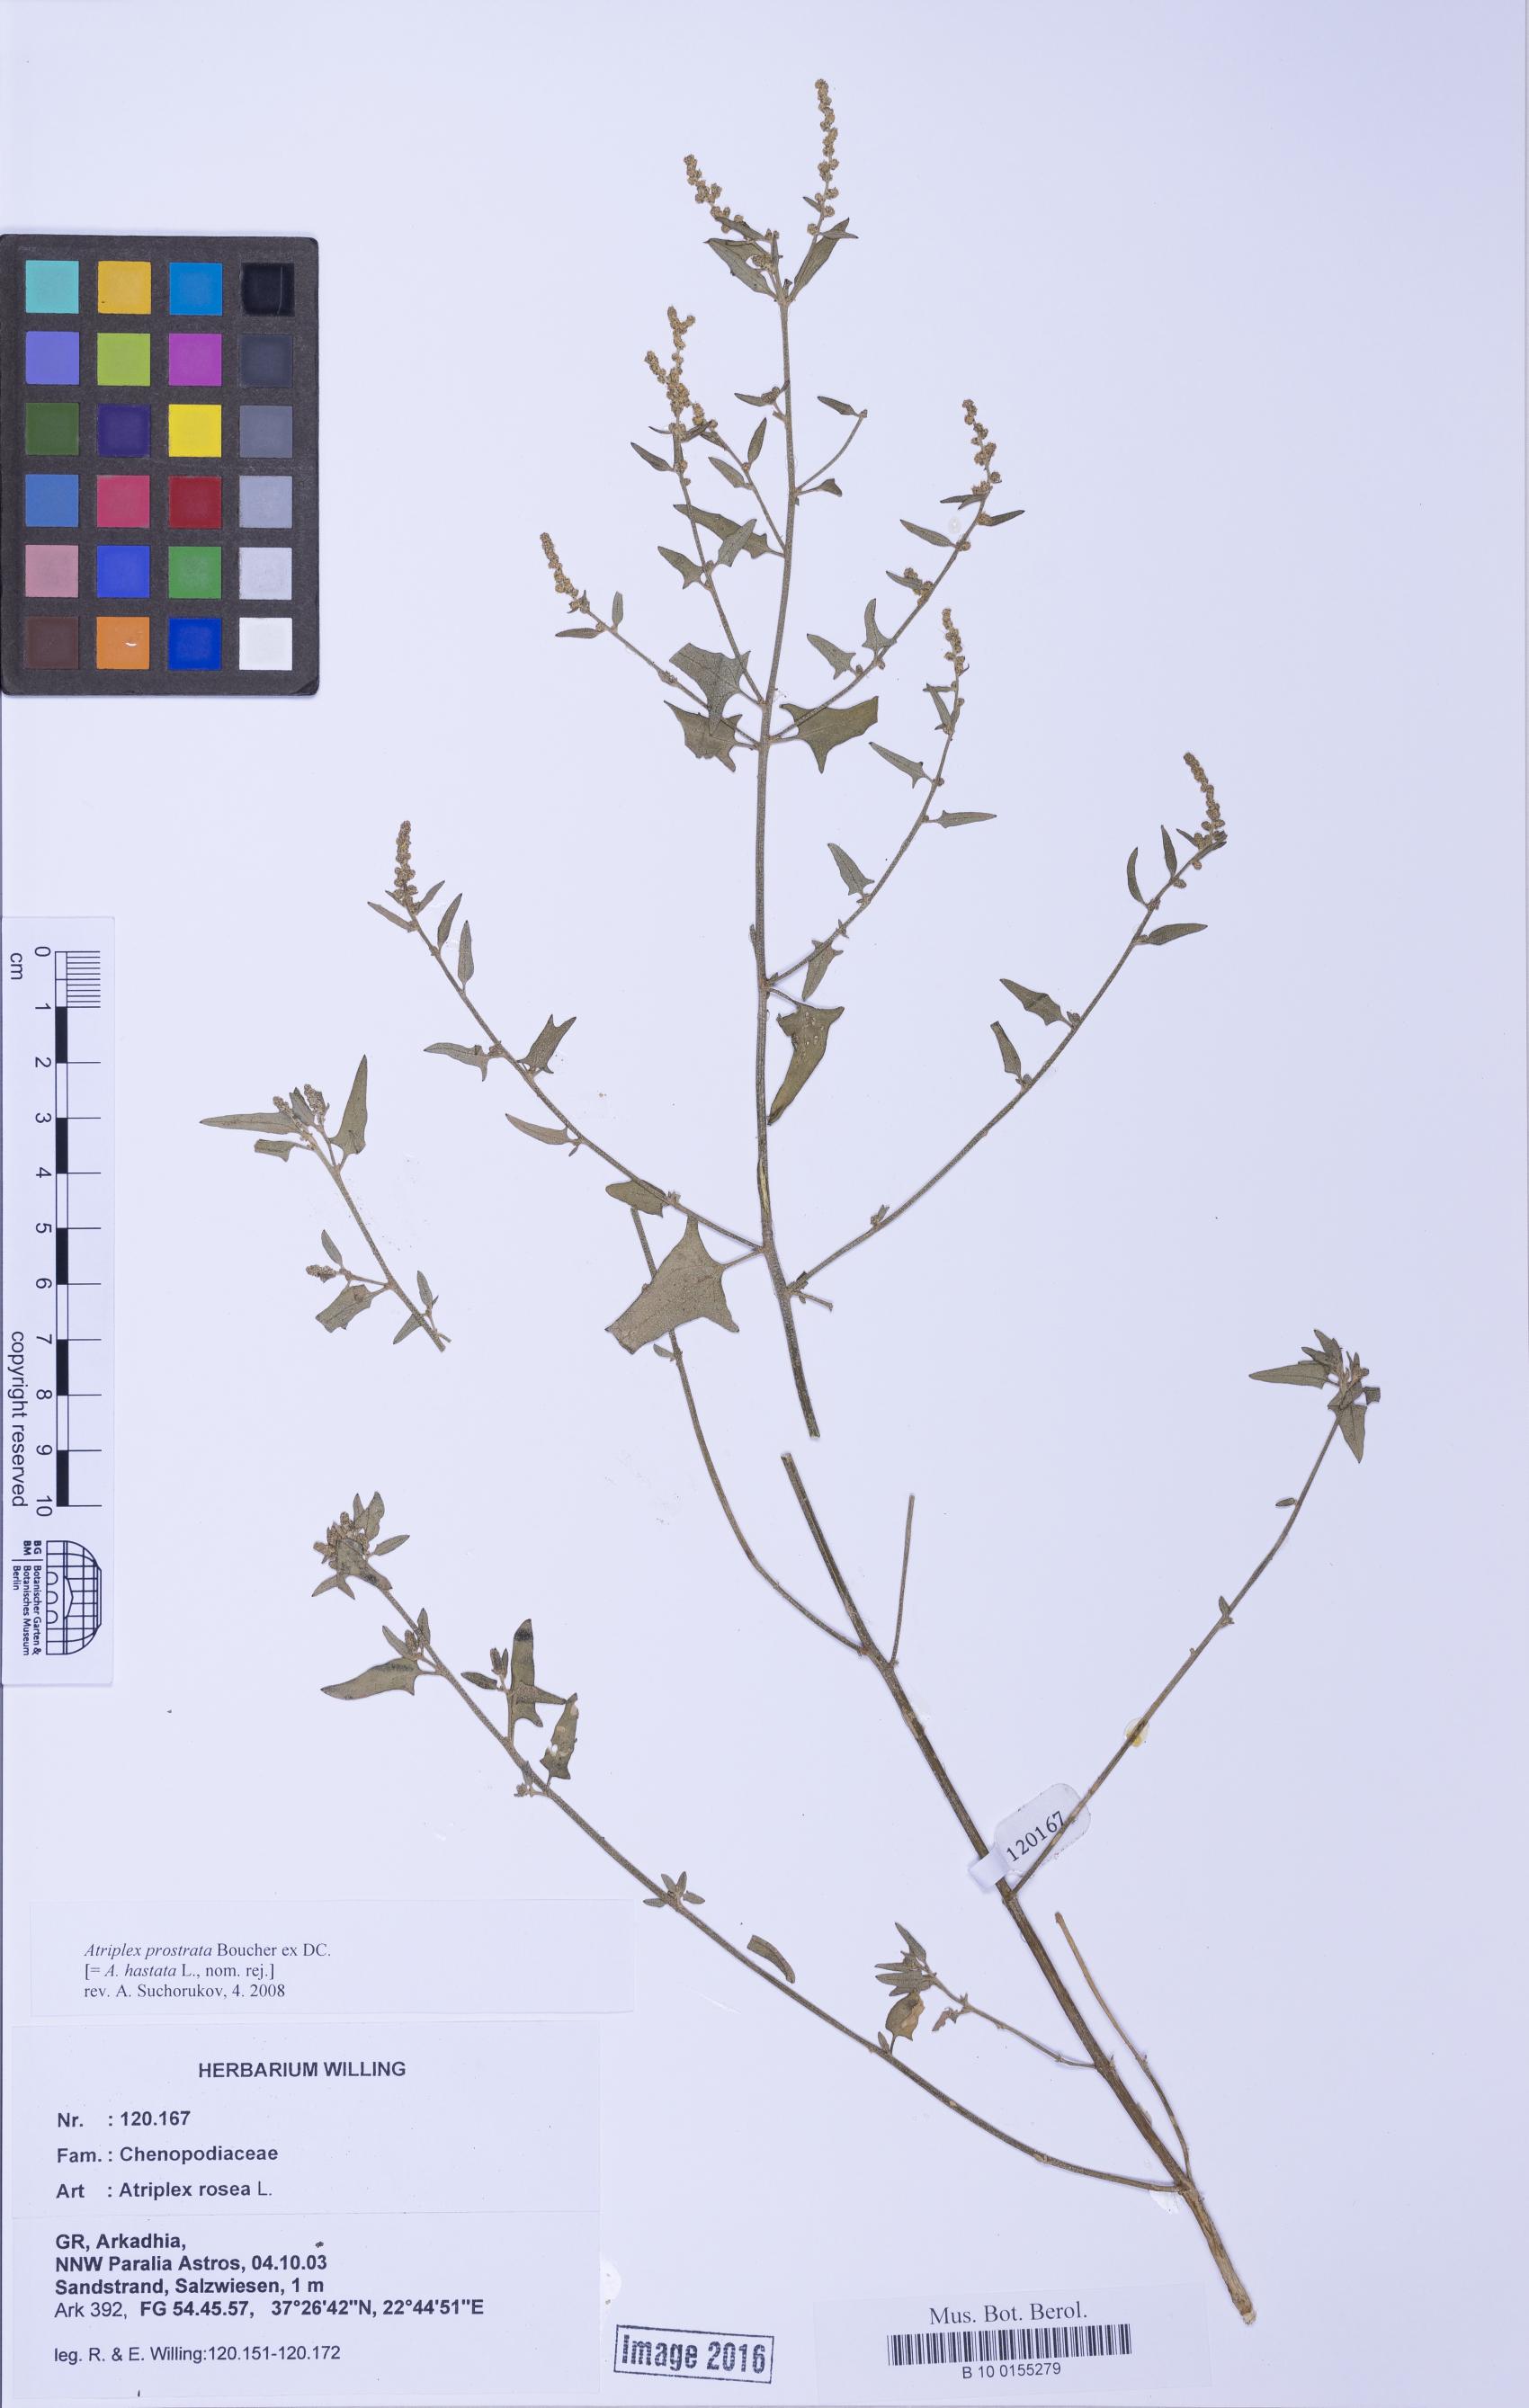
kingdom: Plantae
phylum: Tracheophyta
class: Magnoliopsida
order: Caryophyllales
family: Amaranthaceae
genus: Atriplex
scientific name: Atriplex prostrata
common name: Spear-leaved orache
